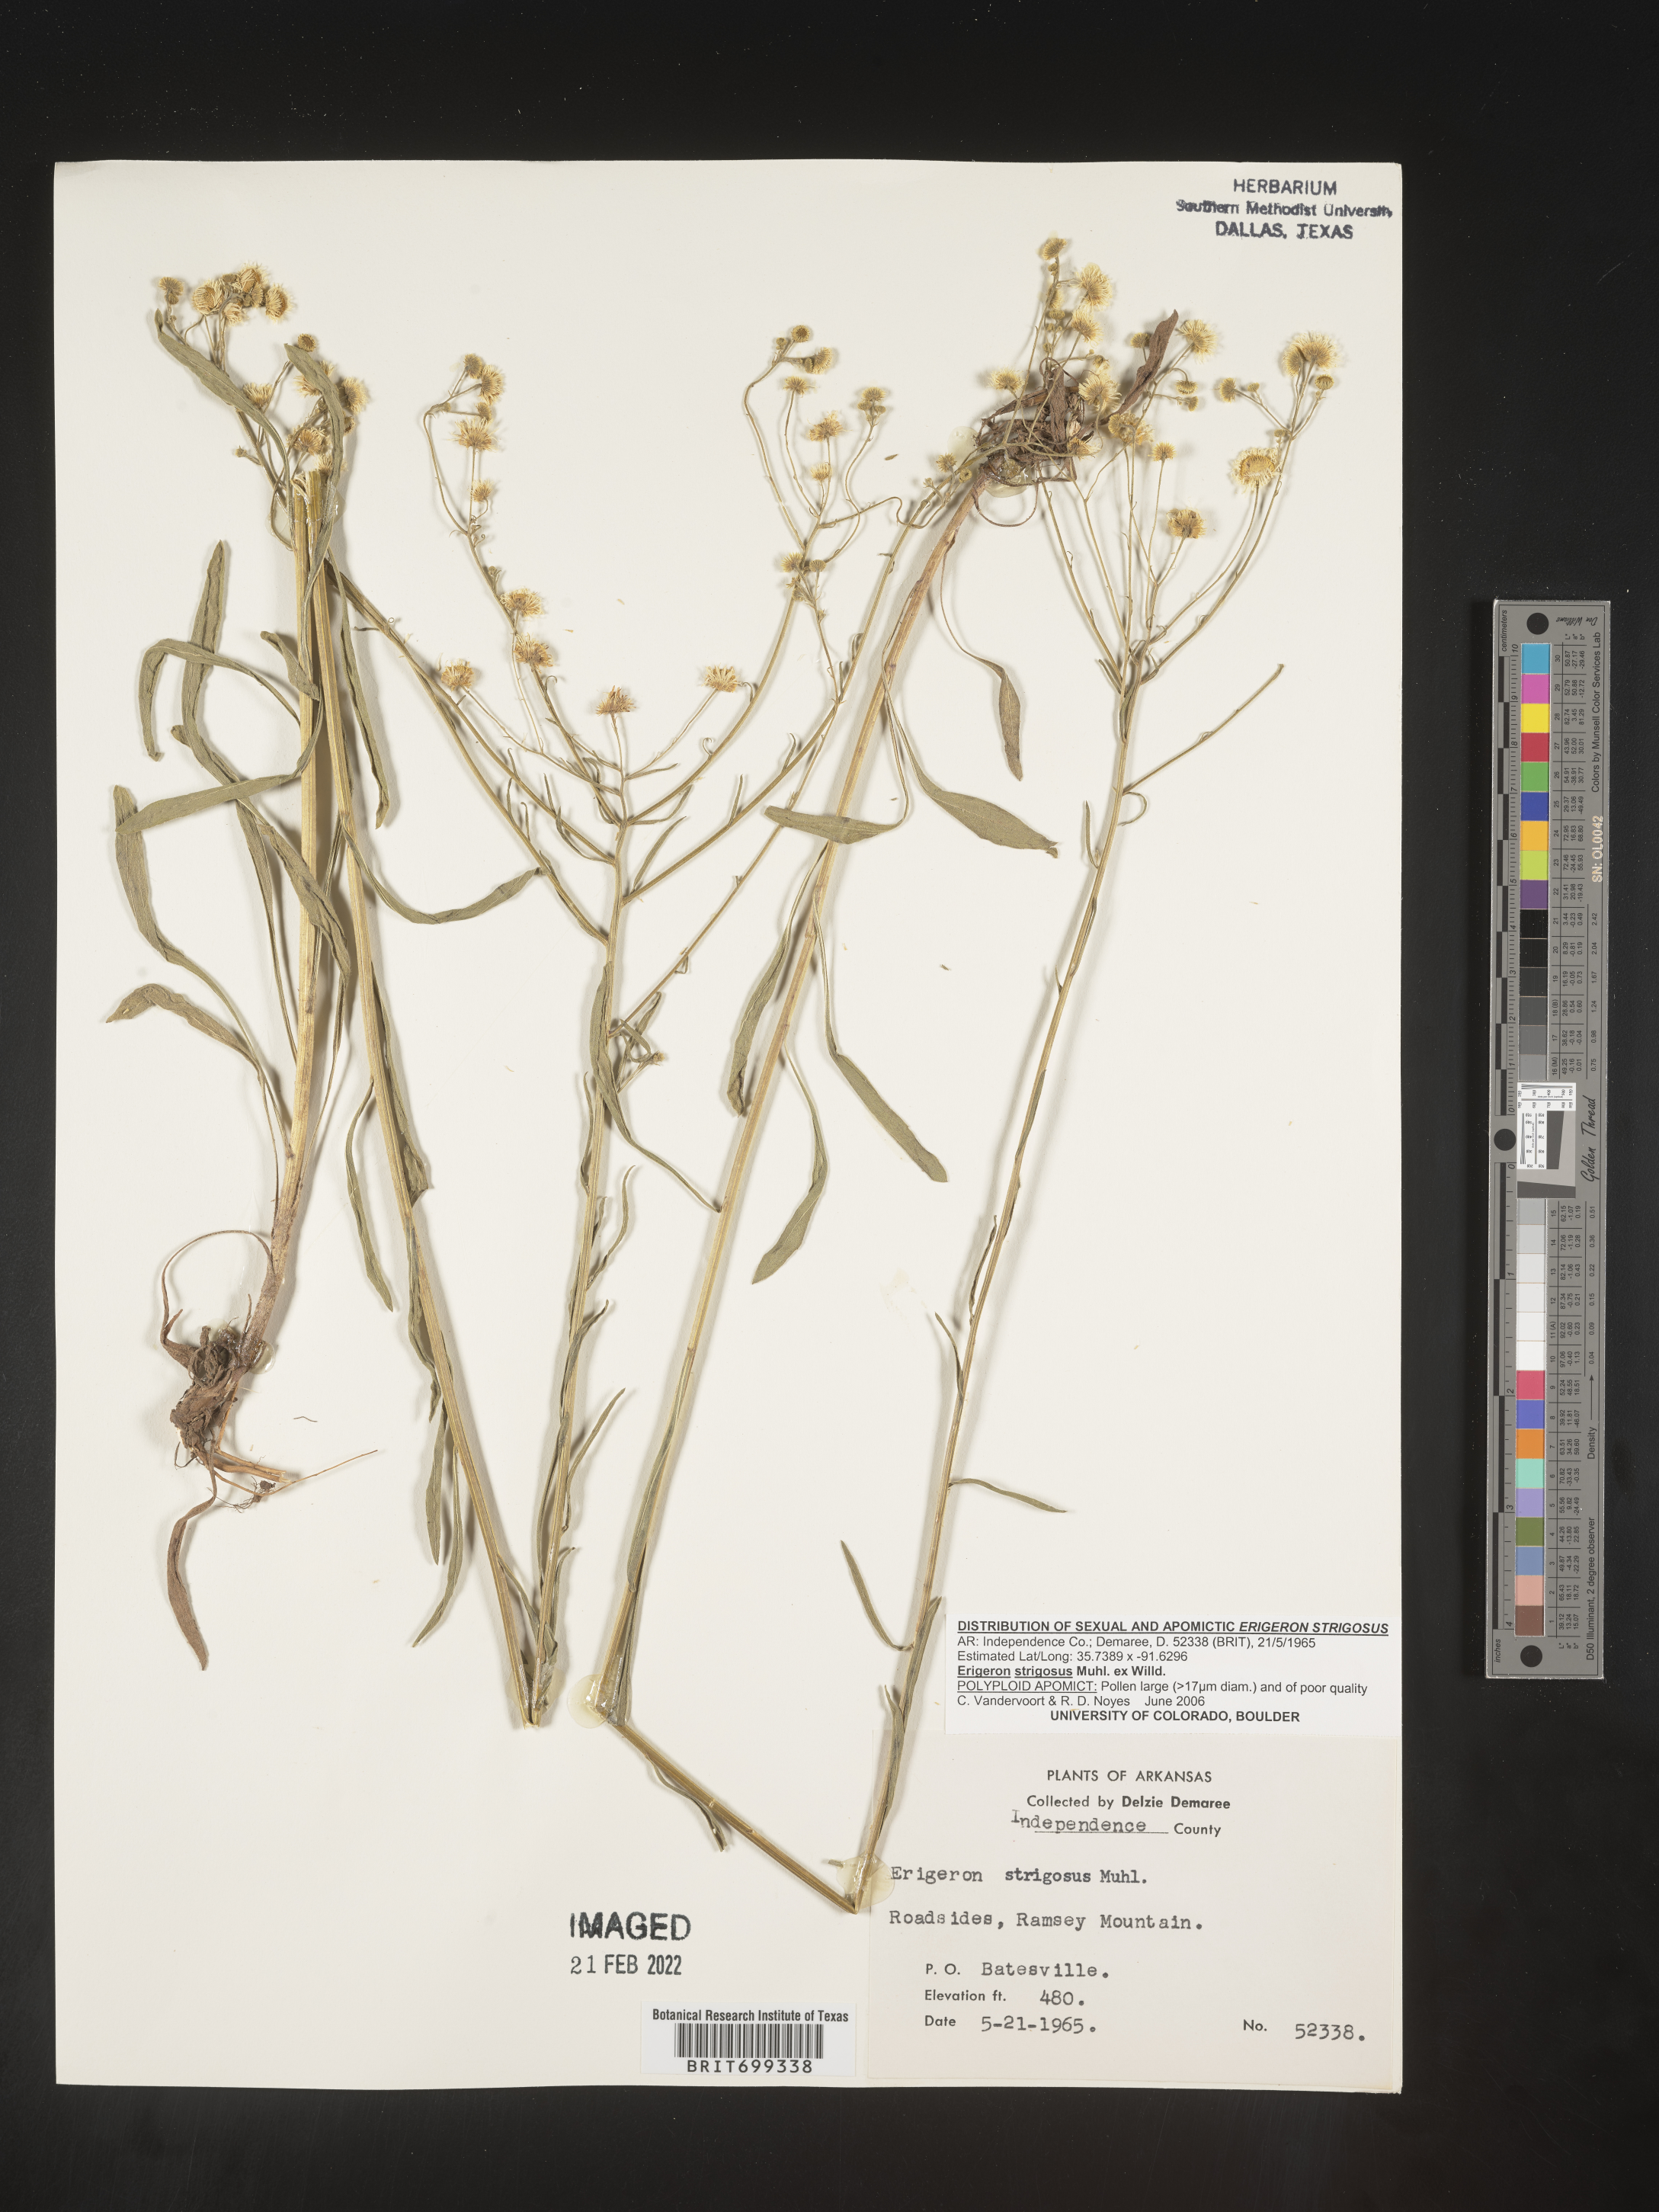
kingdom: Plantae
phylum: Tracheophyta
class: Magnoliopsida
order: Asterales
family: Asteraceae
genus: Erigeron
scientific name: Erigeron strigosus
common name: Common eastern fleabane
